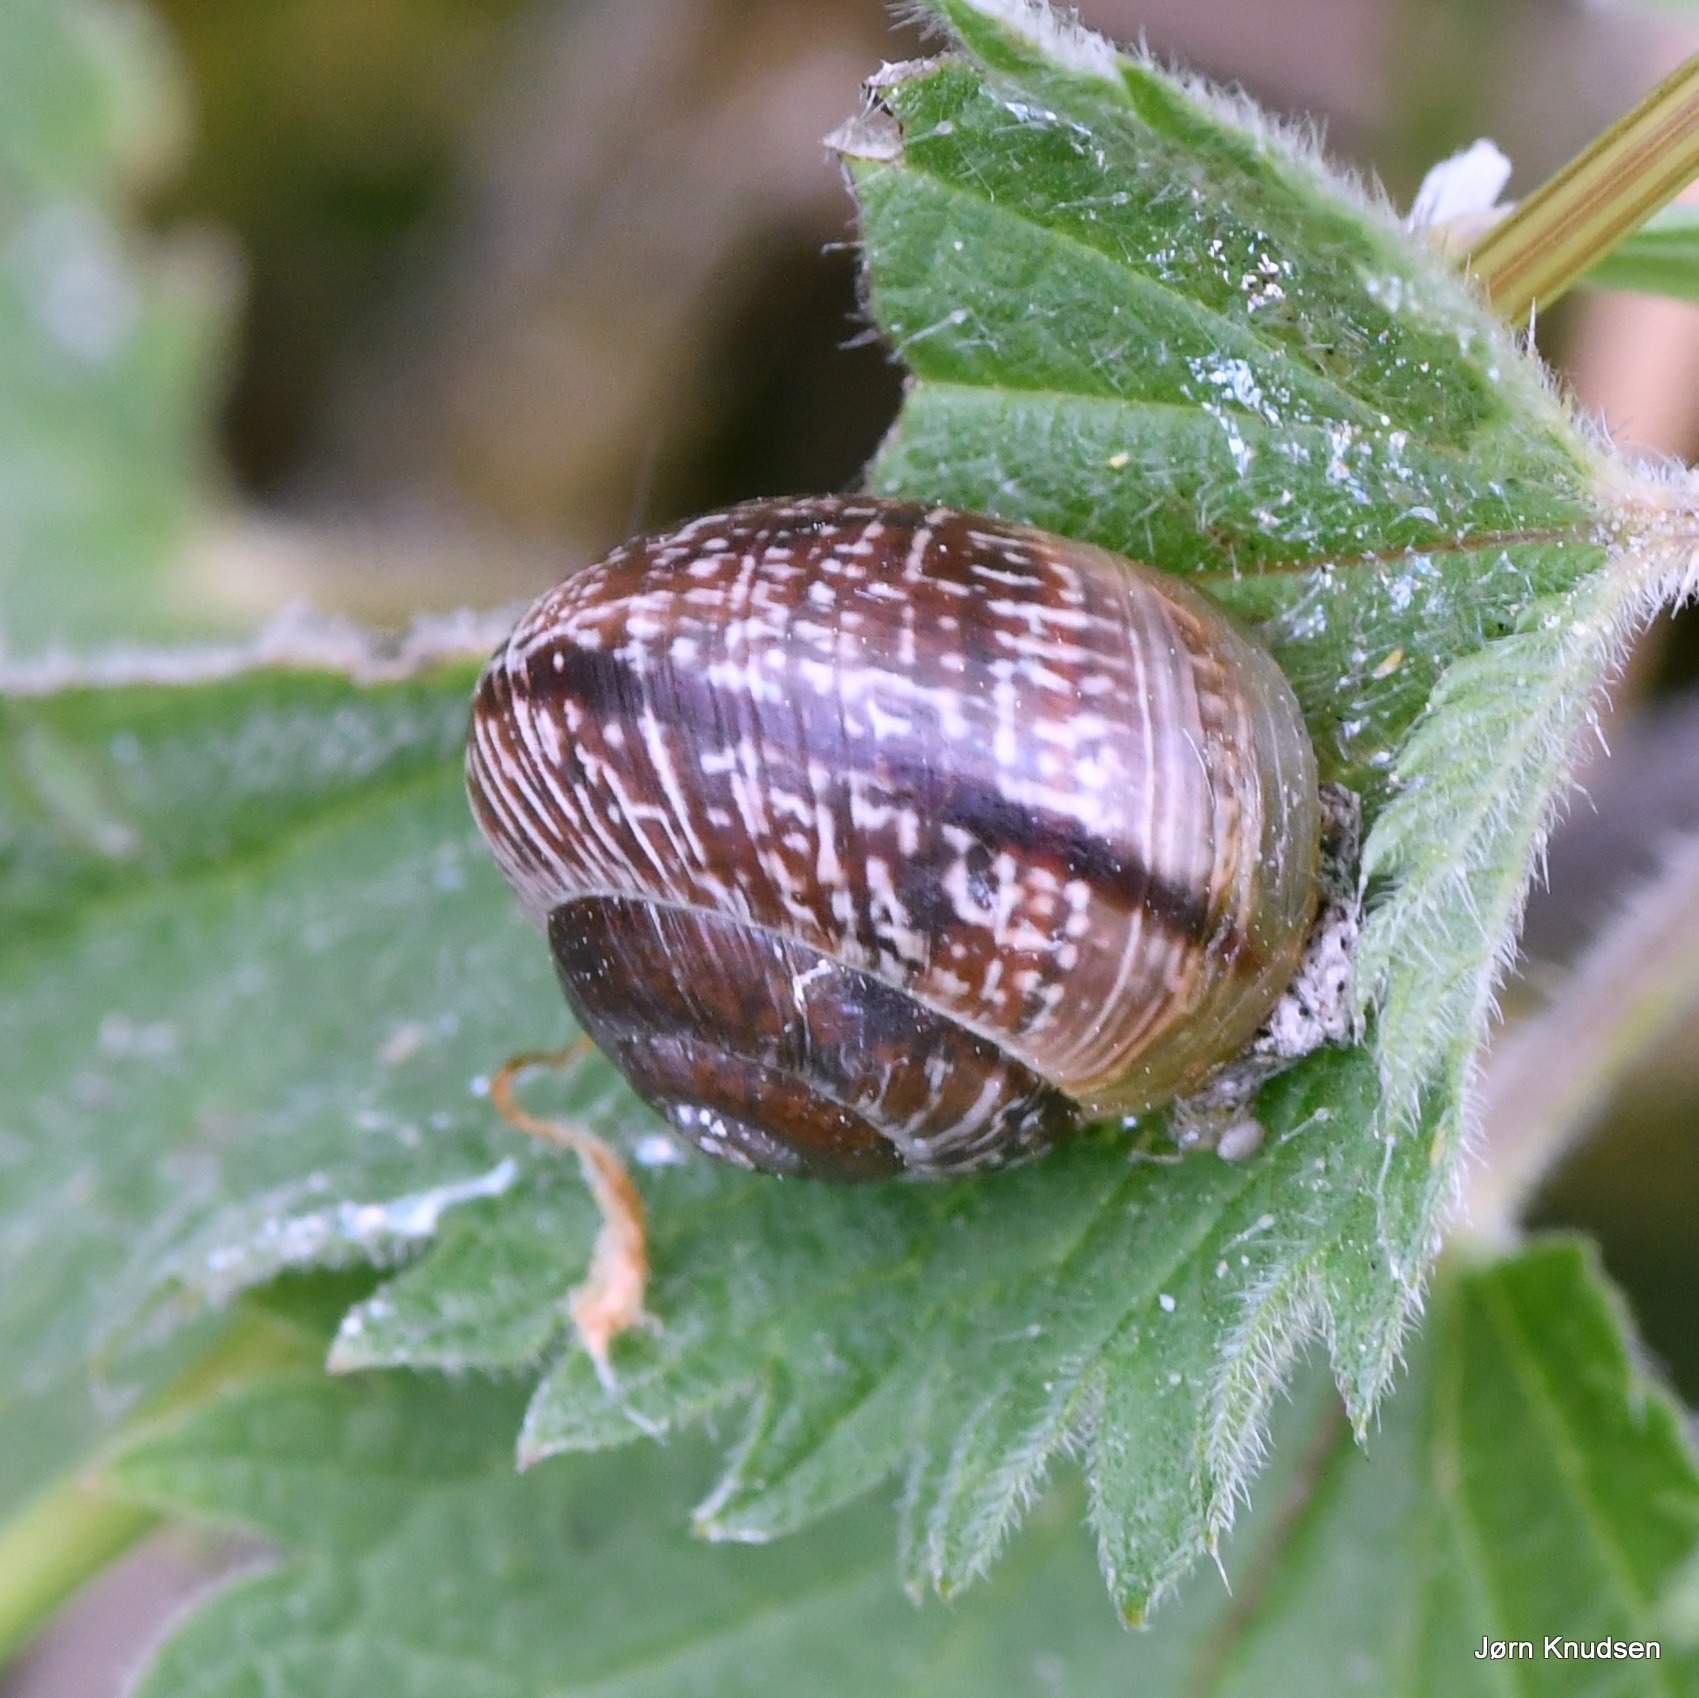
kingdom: Animalia
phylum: Mollusca
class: Gastropoda
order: Stylommatophora
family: Helicidae
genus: Arianta
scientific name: Arianta arbustorum
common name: Kratsnegl
